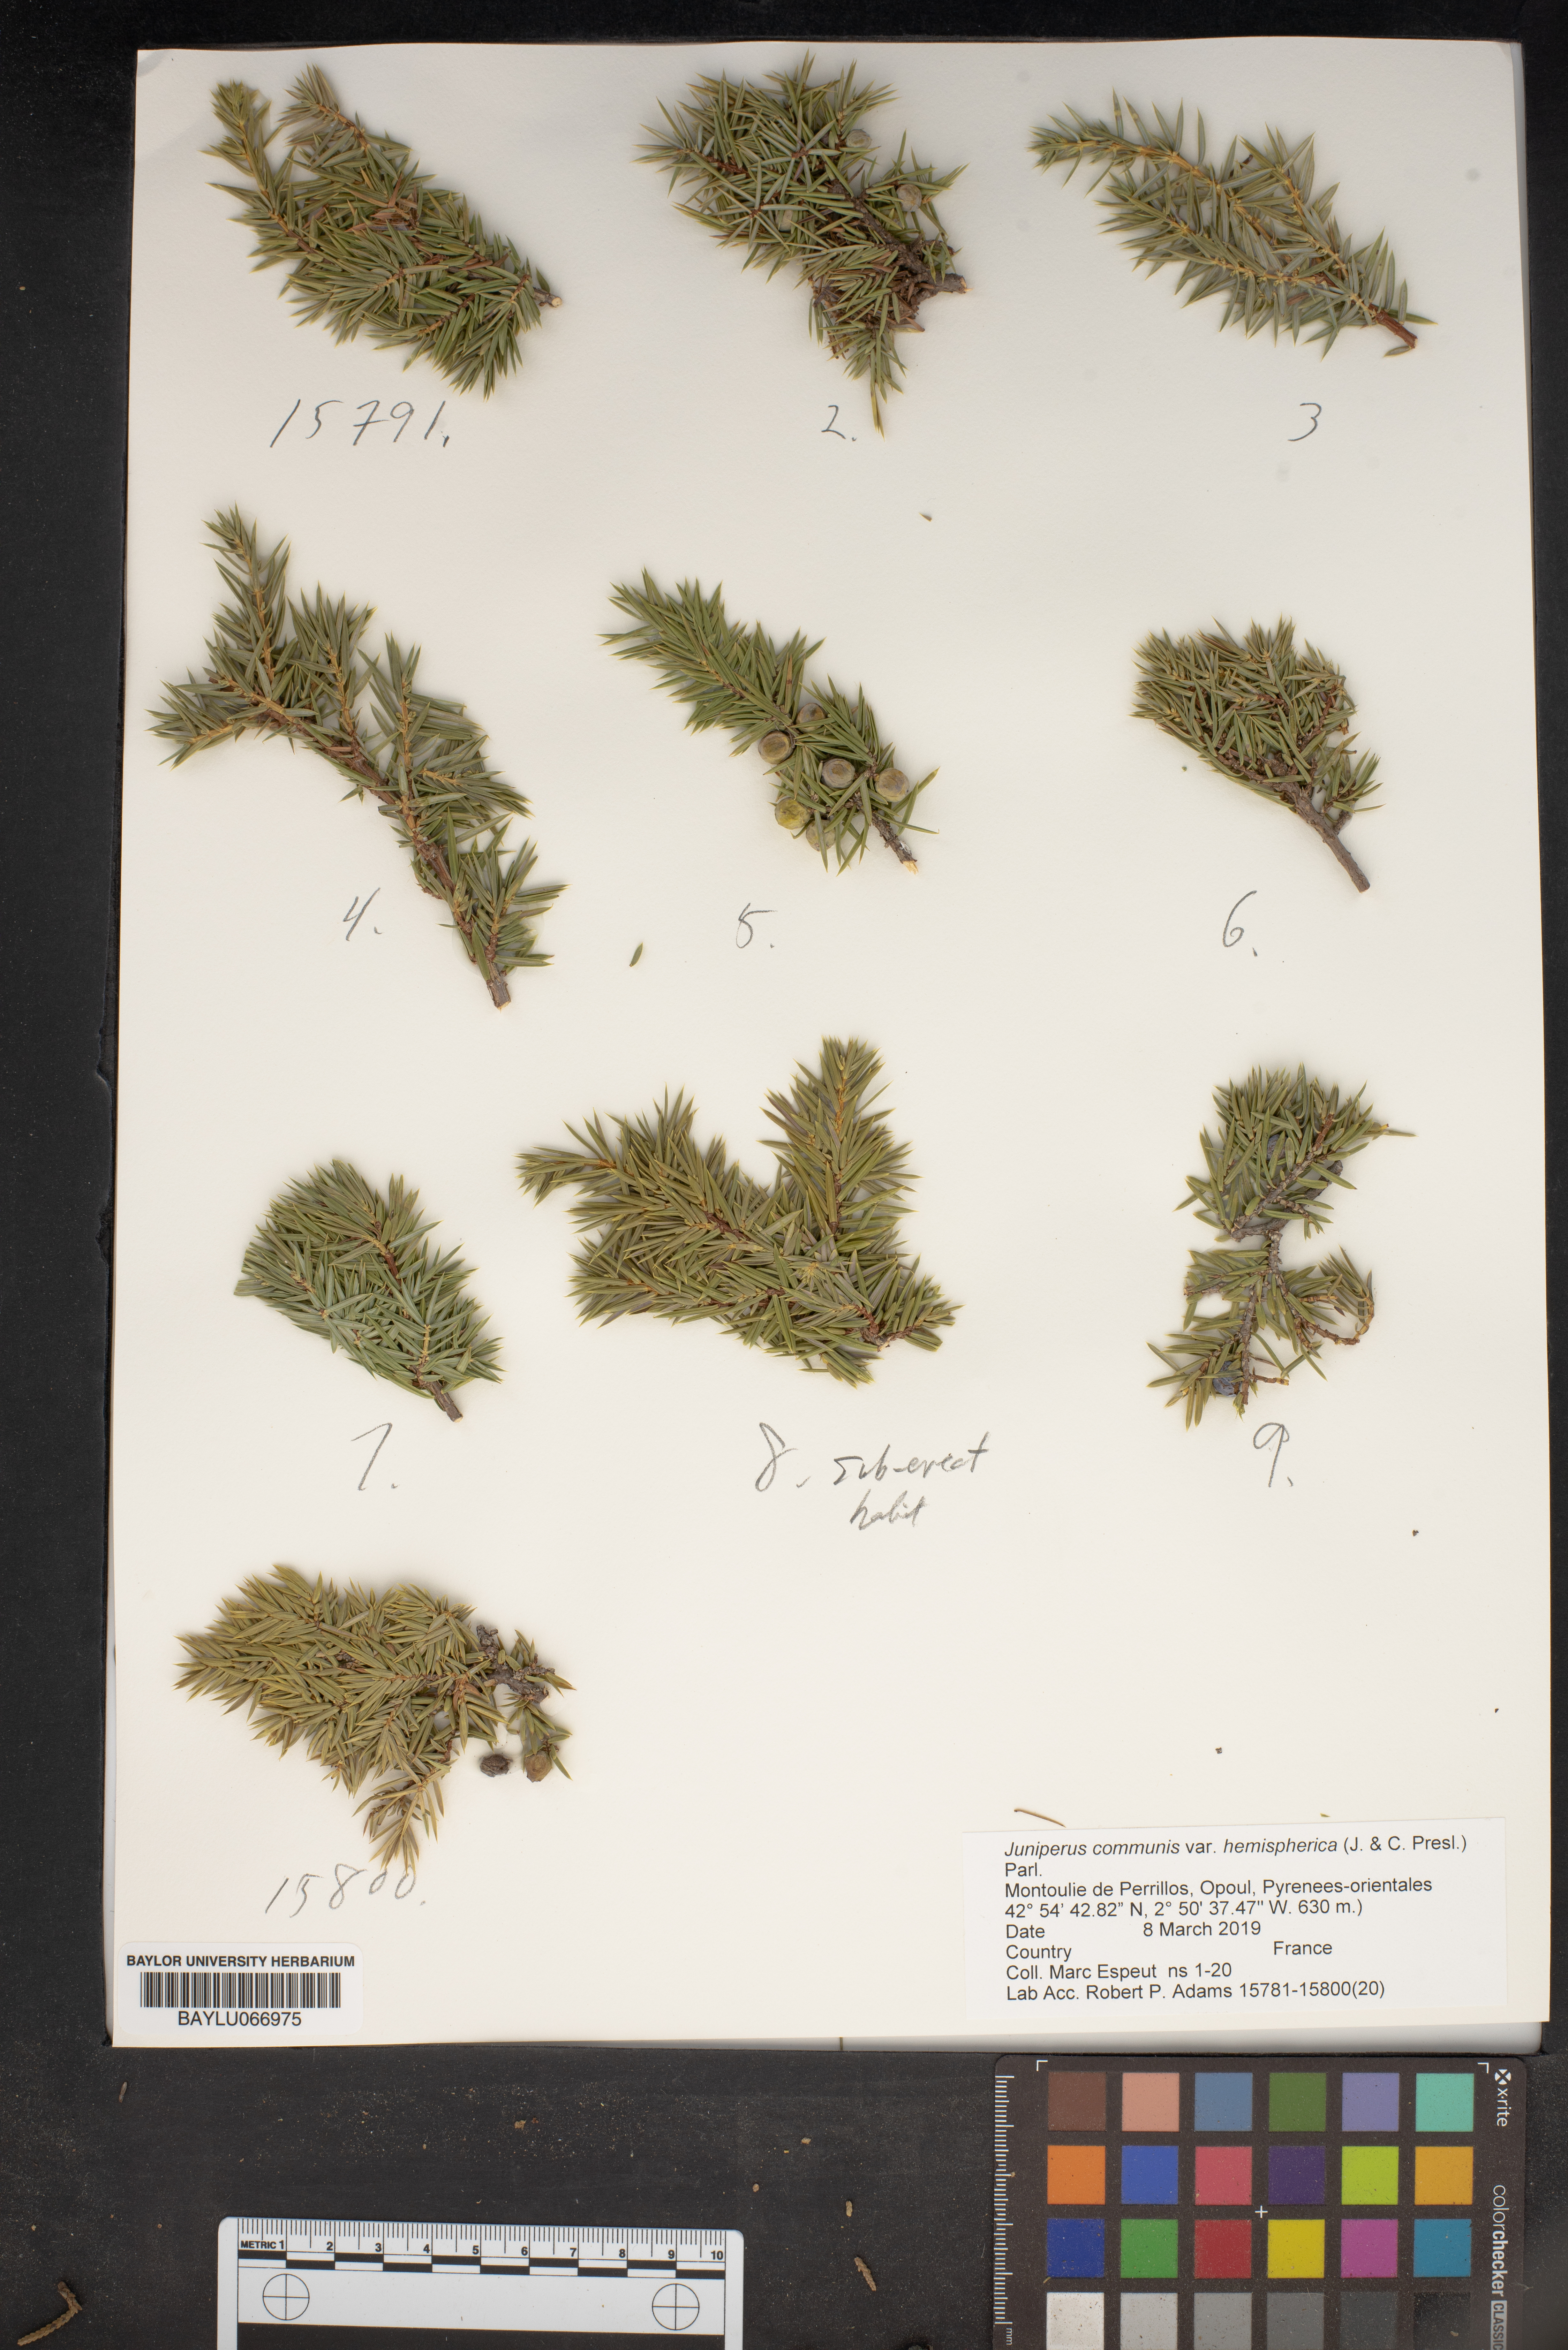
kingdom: Plantae
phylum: Tracheophyta
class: Pinopsida
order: Pinales
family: Cupressaceae
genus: Juniperus
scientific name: Juniperus communis
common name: Common juniper
